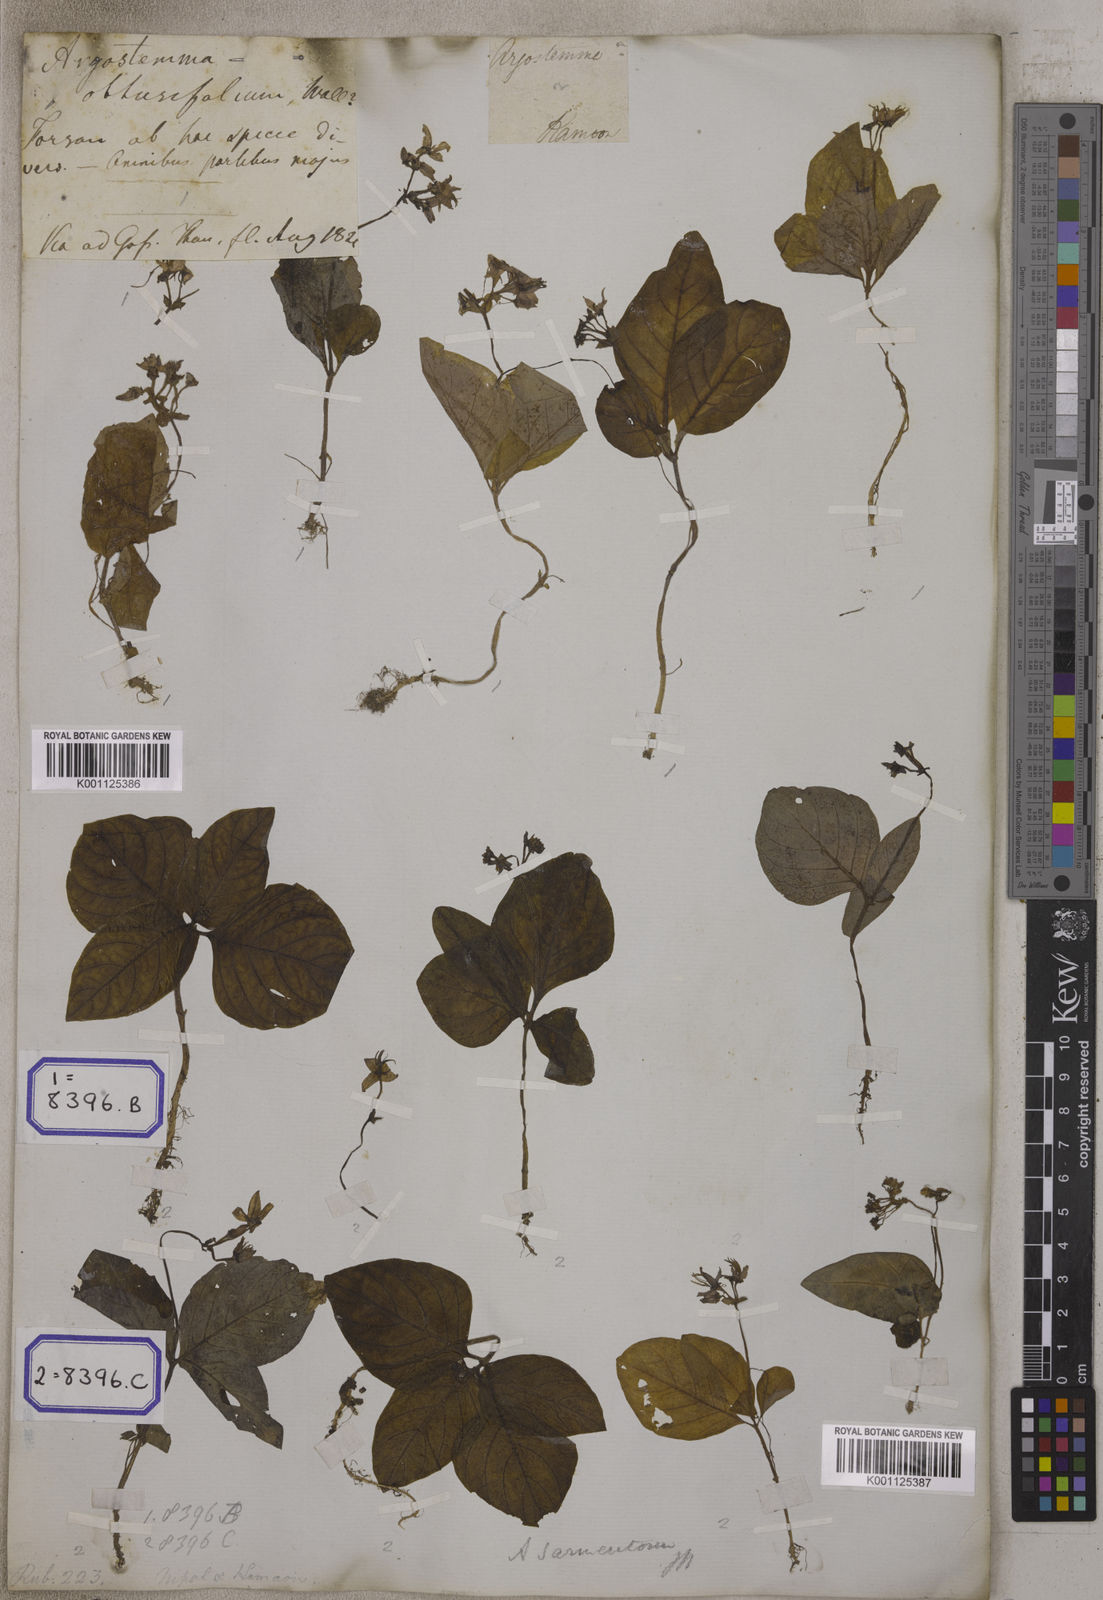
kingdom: Plantae
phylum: Tracheophyta
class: Magnoliopsida
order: Gentianales
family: Rubiaceae
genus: Argostemma
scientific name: Argostemma sarmentosum
